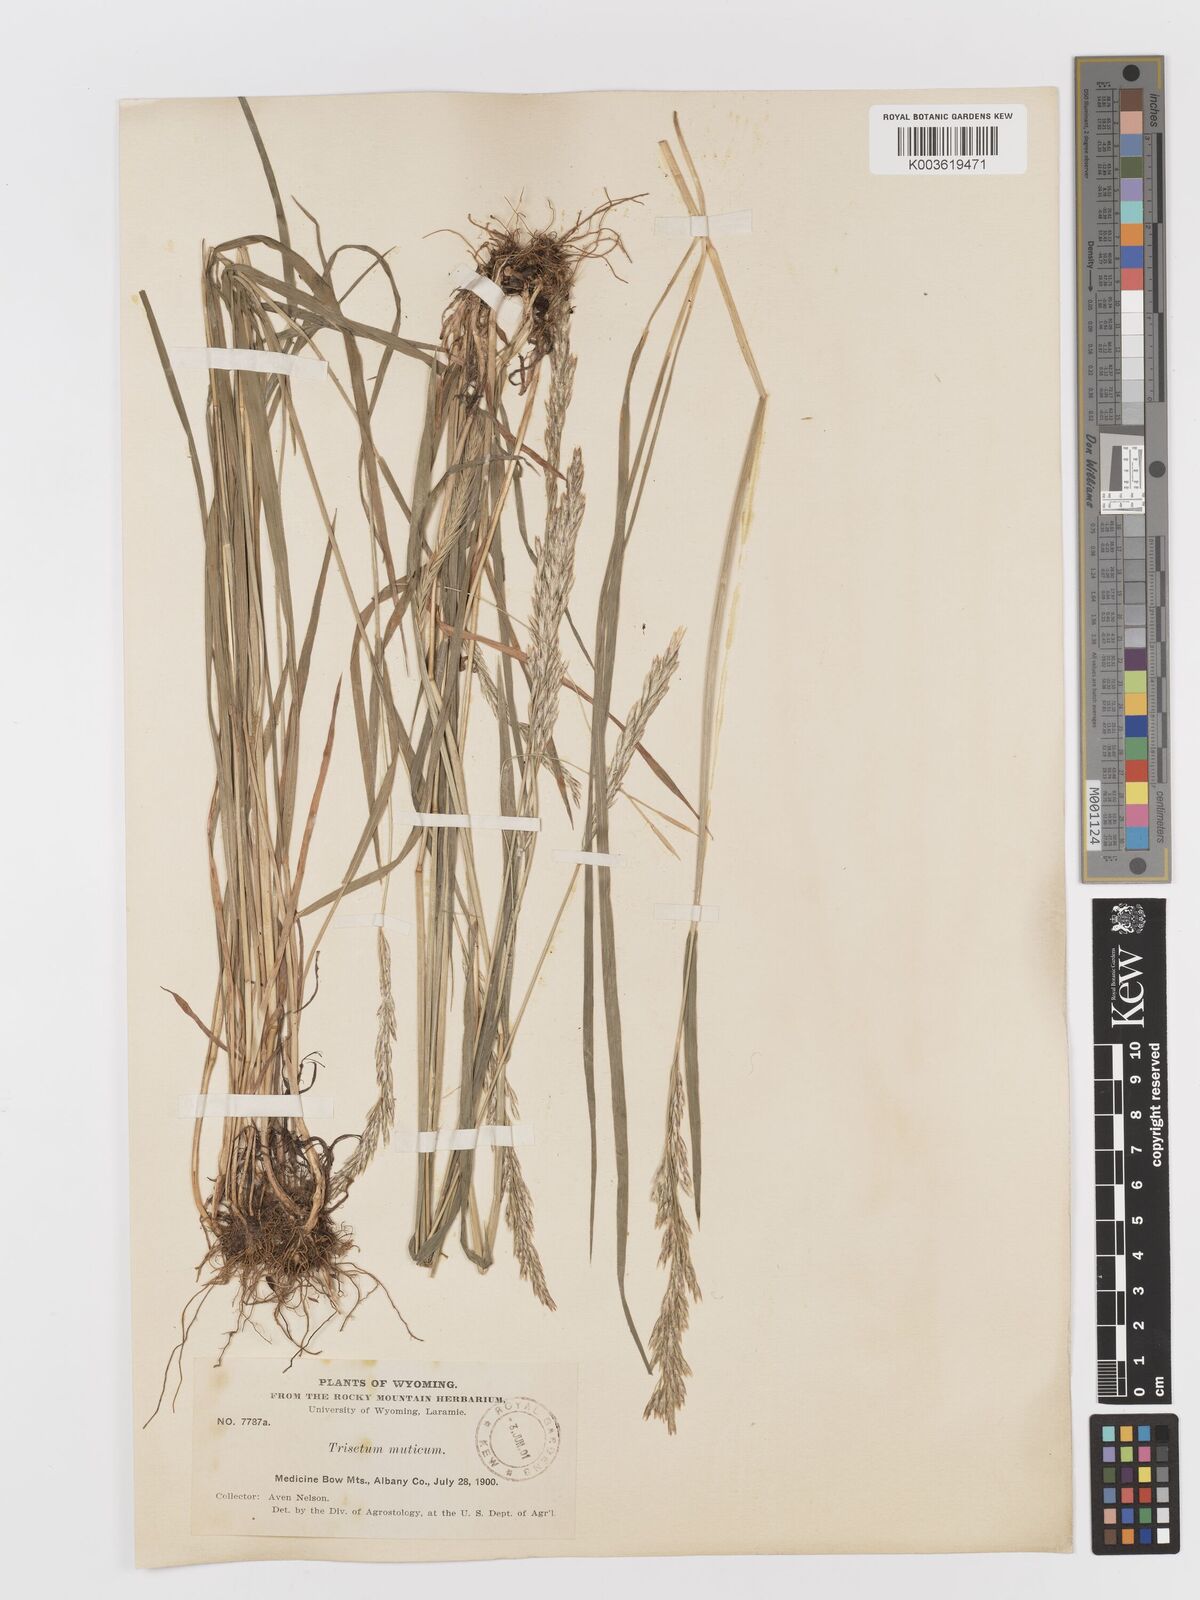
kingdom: Plantae
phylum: Tracheophyta
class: Liliopsida
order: Poales
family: Poaceae
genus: Graphephorum
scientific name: Graphephorum wolfii
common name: Wolf's trisetum
